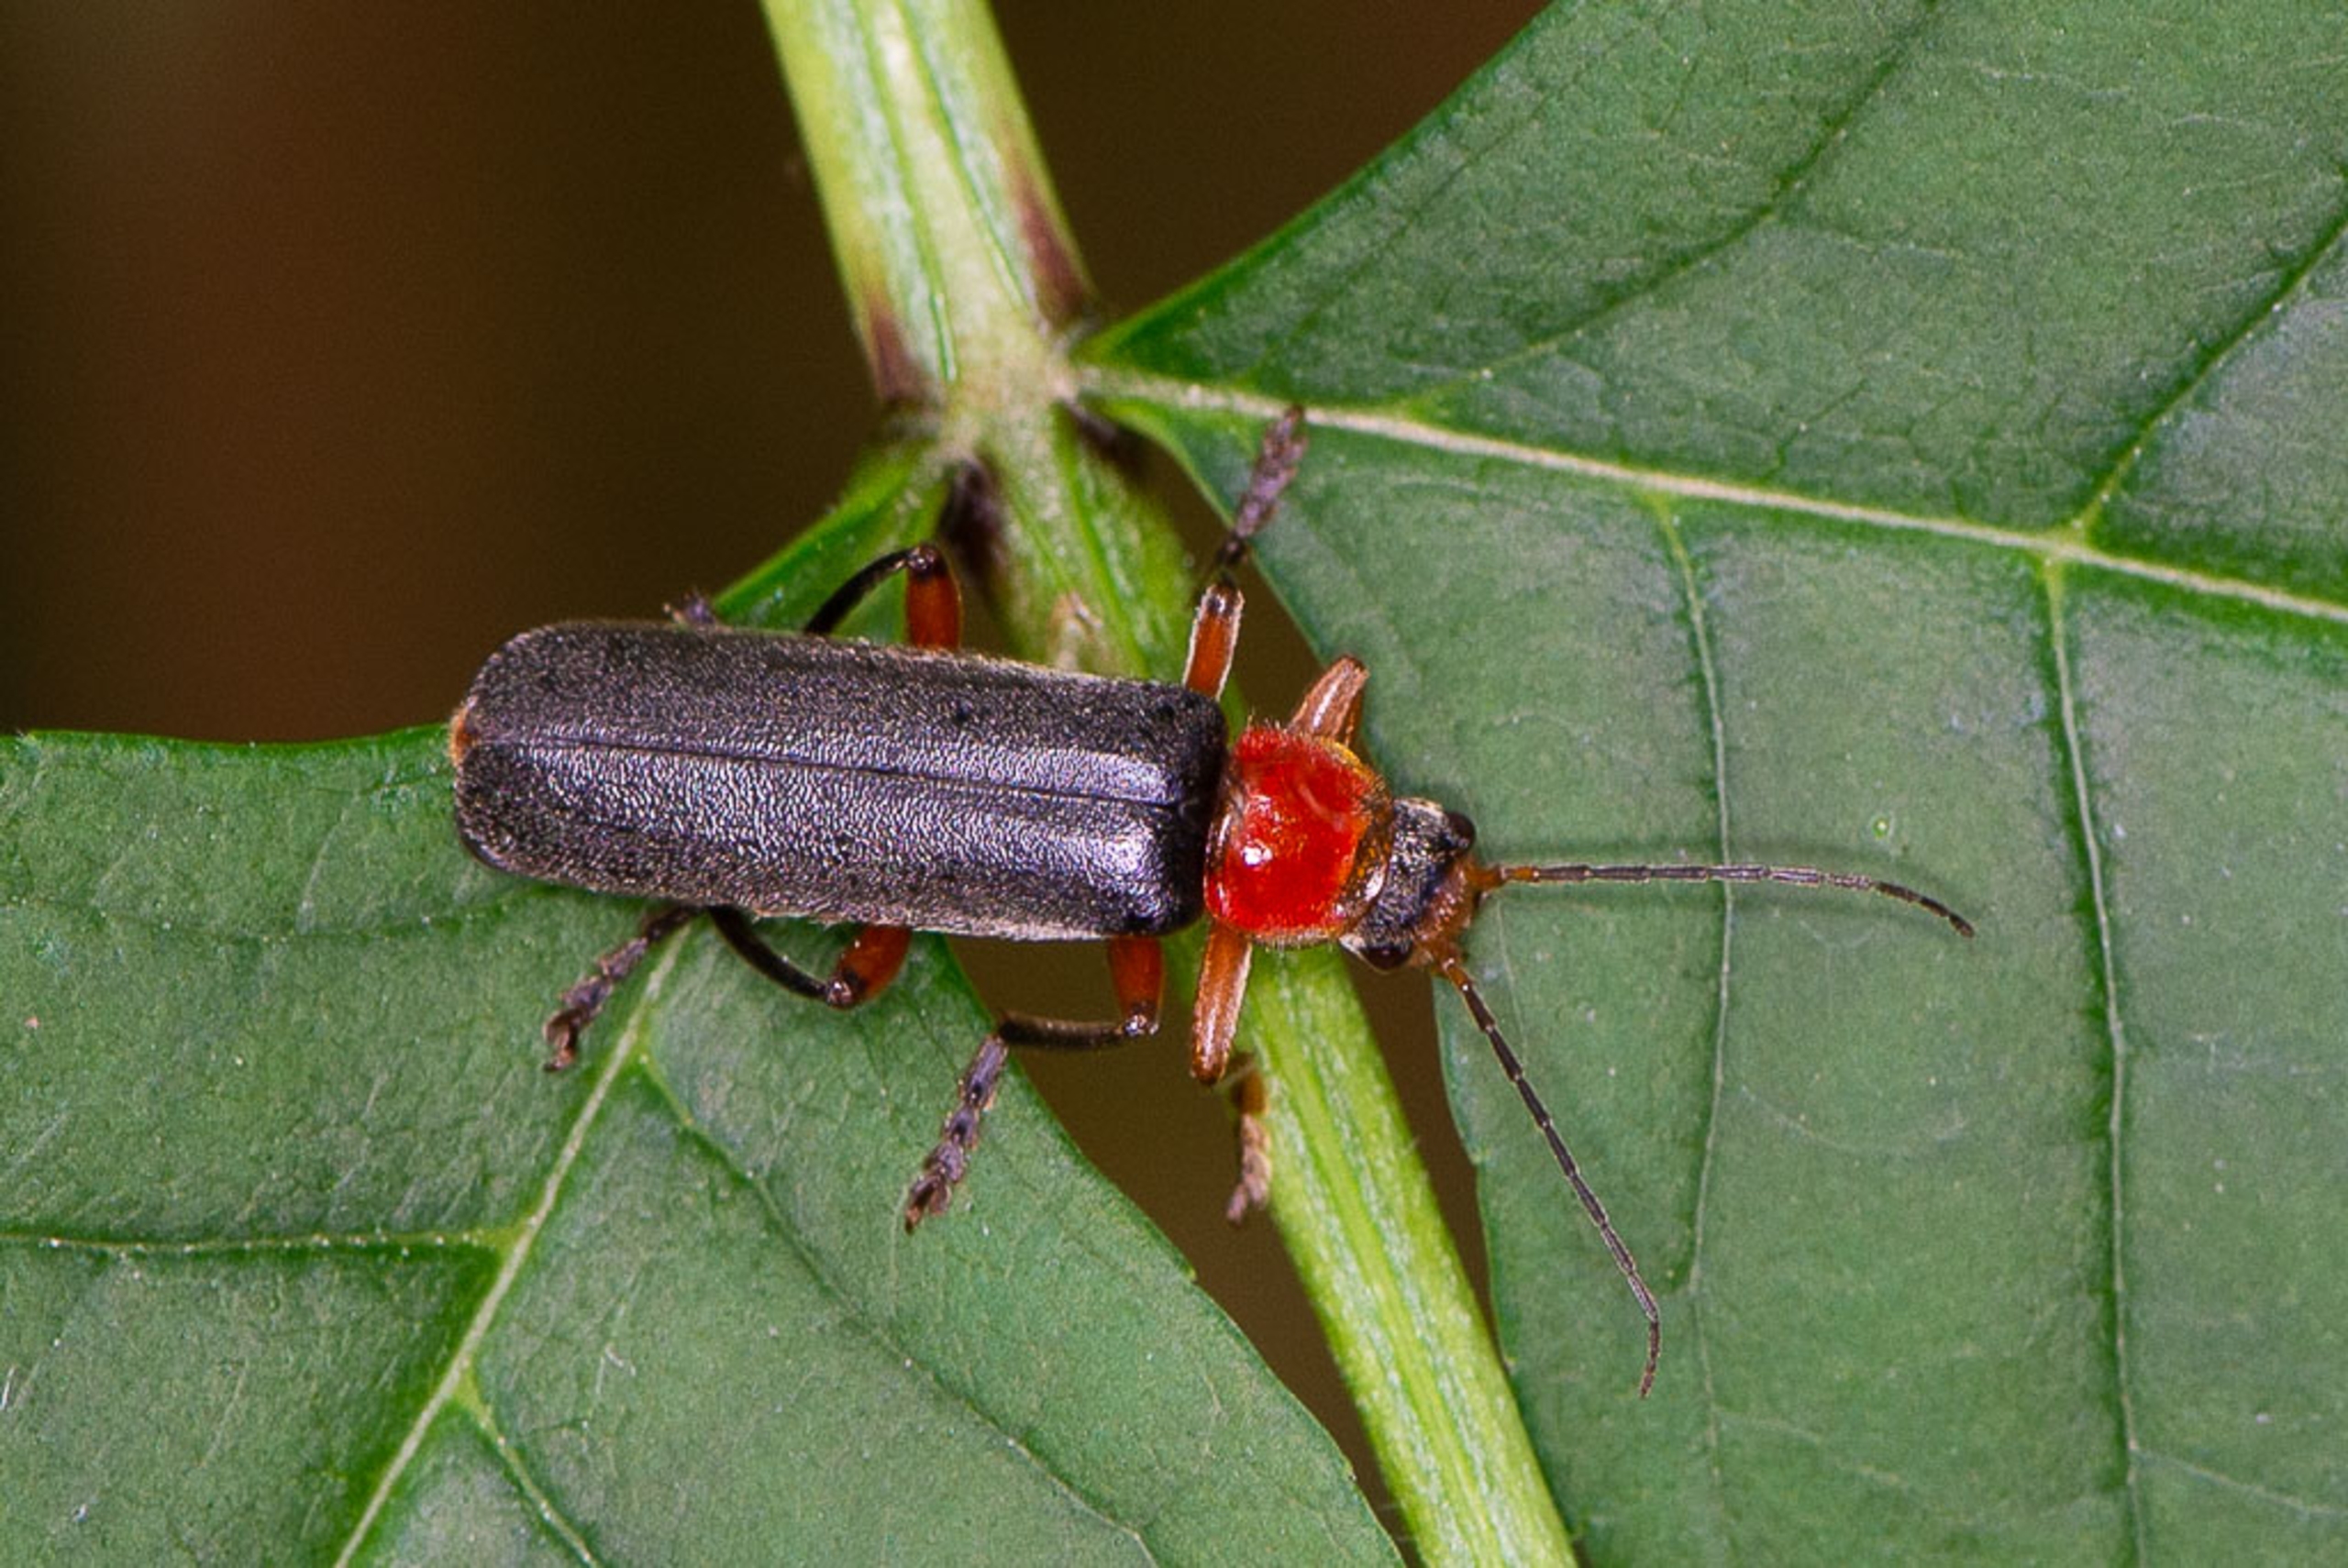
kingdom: Animalia
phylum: Arthropoda
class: Insecta
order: Coleoptera
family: Cantharidae
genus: Cantharis
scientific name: Cantharis pellucida
